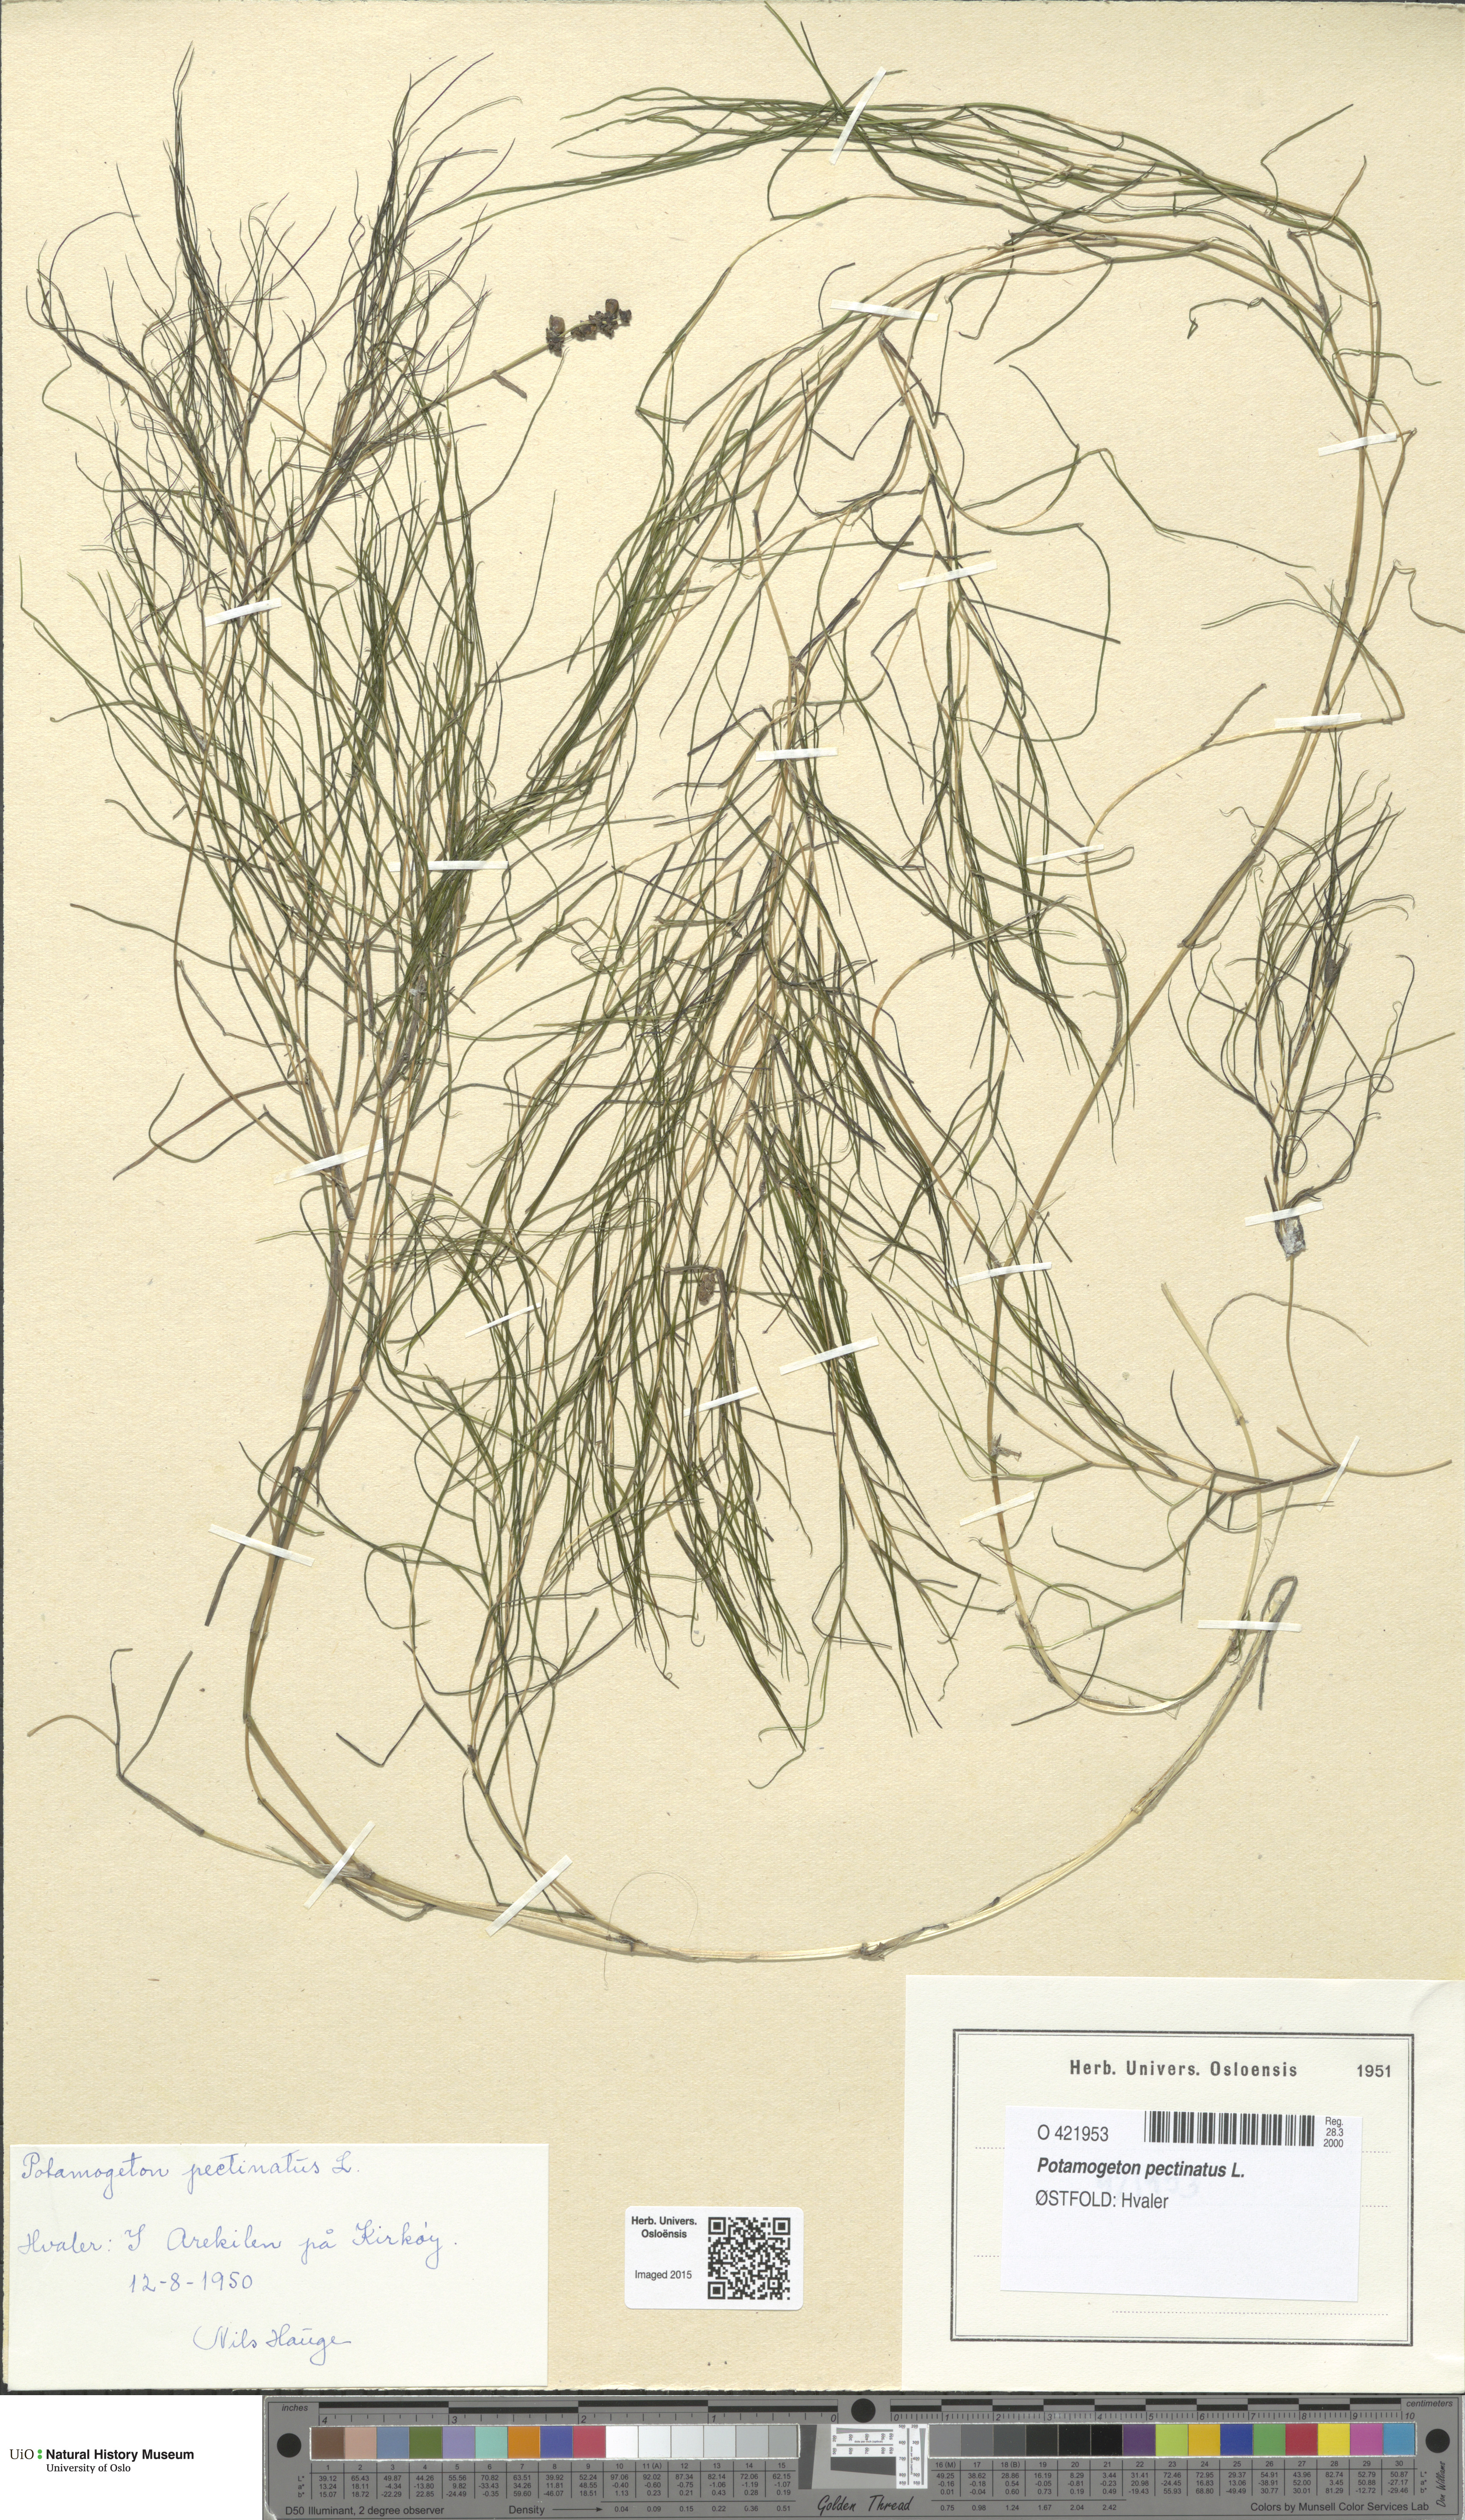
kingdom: Plantae
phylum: Tracheophyta
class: Liliopsida
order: Alismatales
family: Potamogetonaceae
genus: Stuckenia
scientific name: Stuckenia pectinata
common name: Sago pondweed
